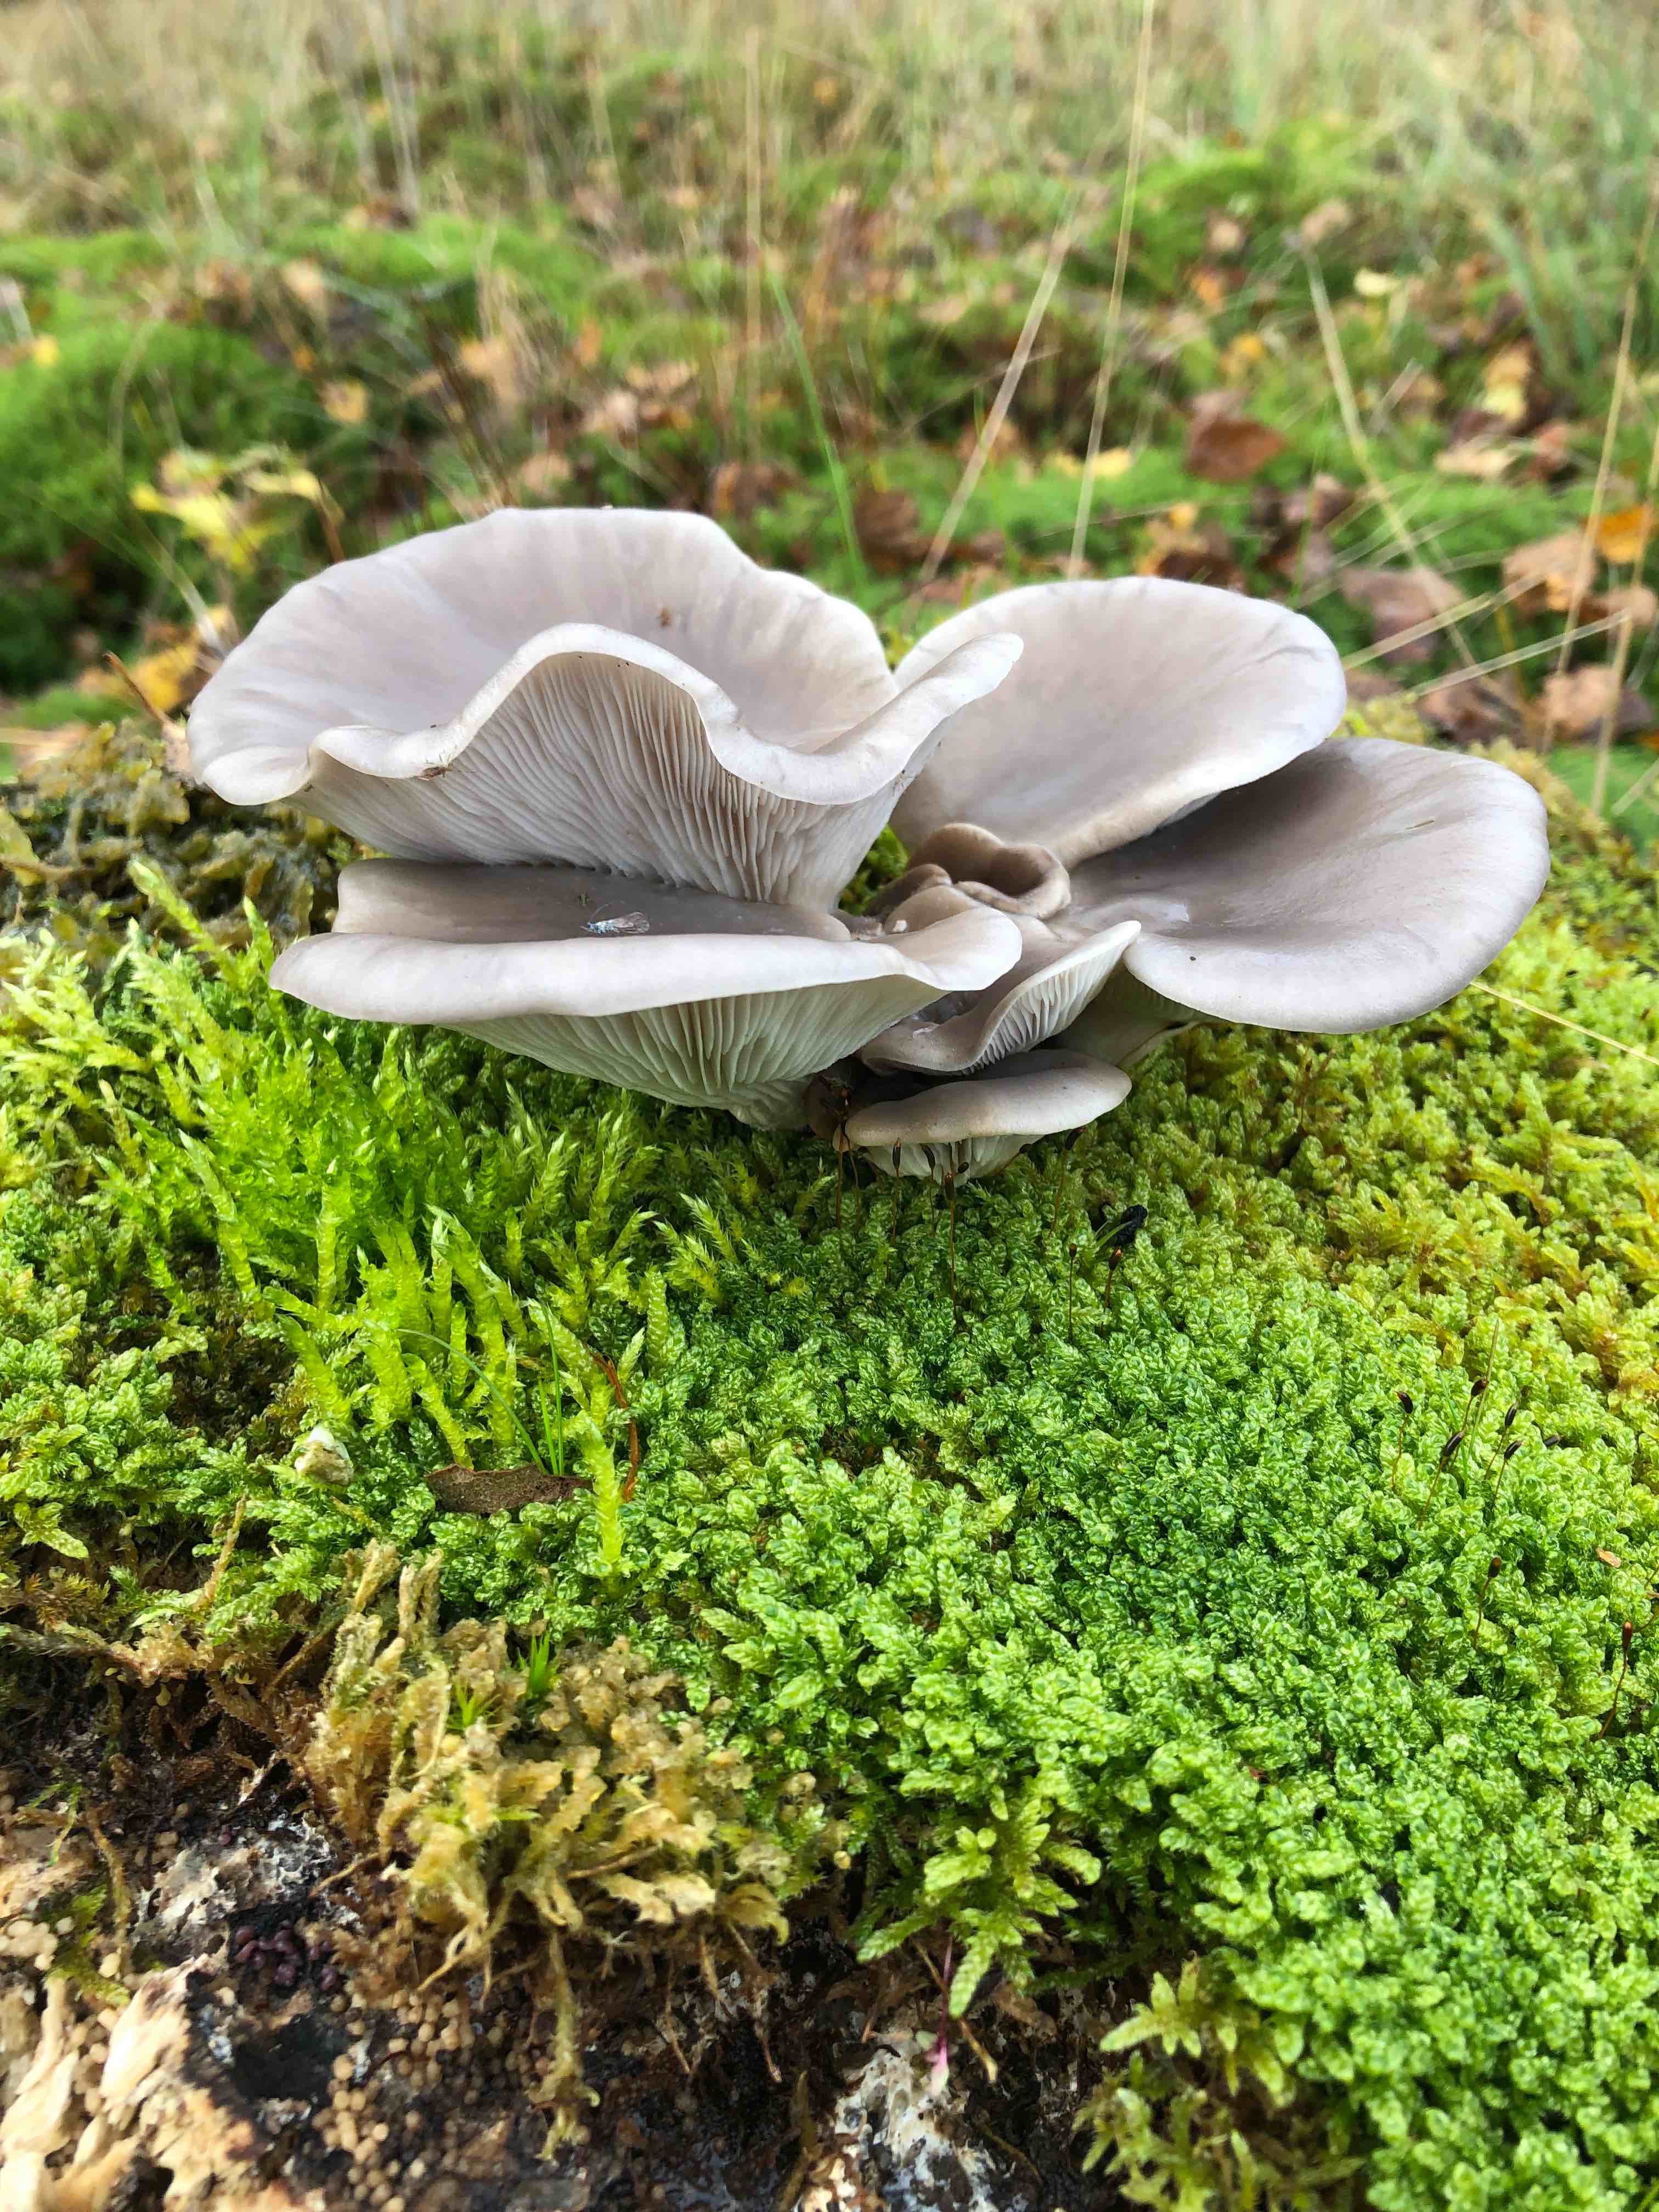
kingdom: Fungi
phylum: Basidiomycota
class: Agaricomycetes
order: Agaricales
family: Pleurotaceae
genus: Pleurotus
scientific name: Pleurotus ostreatus
